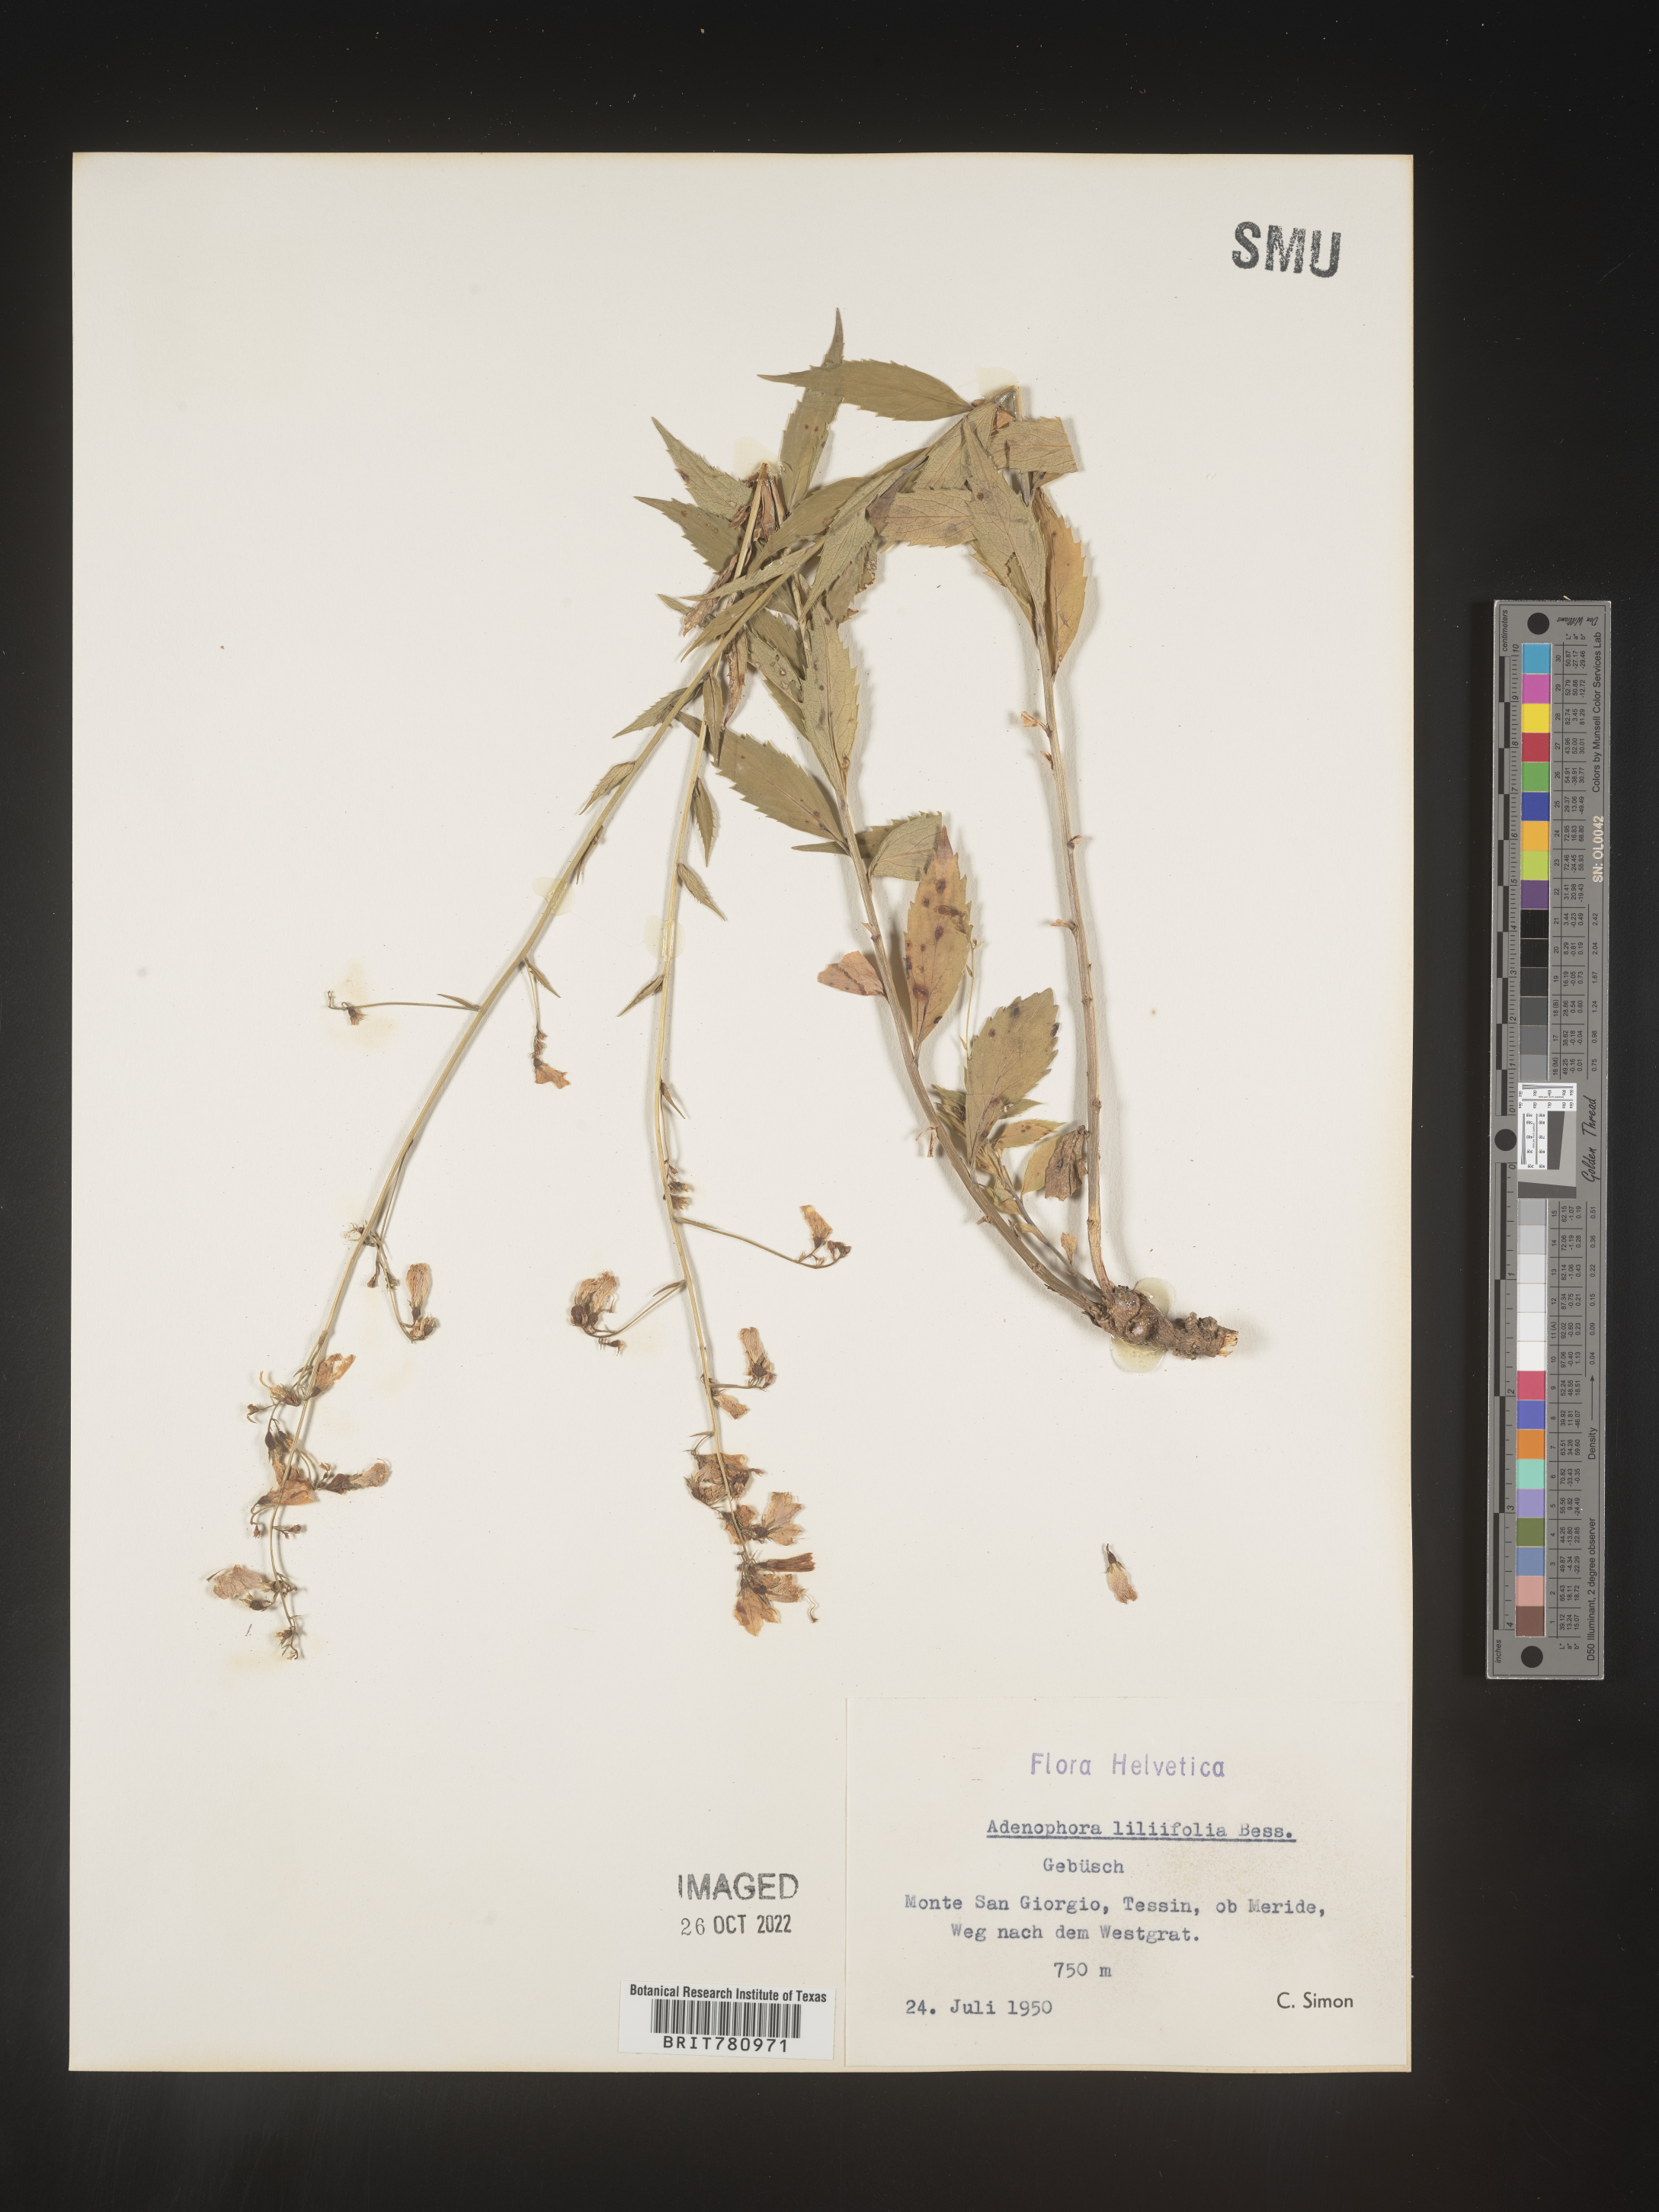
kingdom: Plantae
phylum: Tracheophyta
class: Magnoliopsida
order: Asterales
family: Campanulaceae
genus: Adenophora
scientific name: Adenophora
